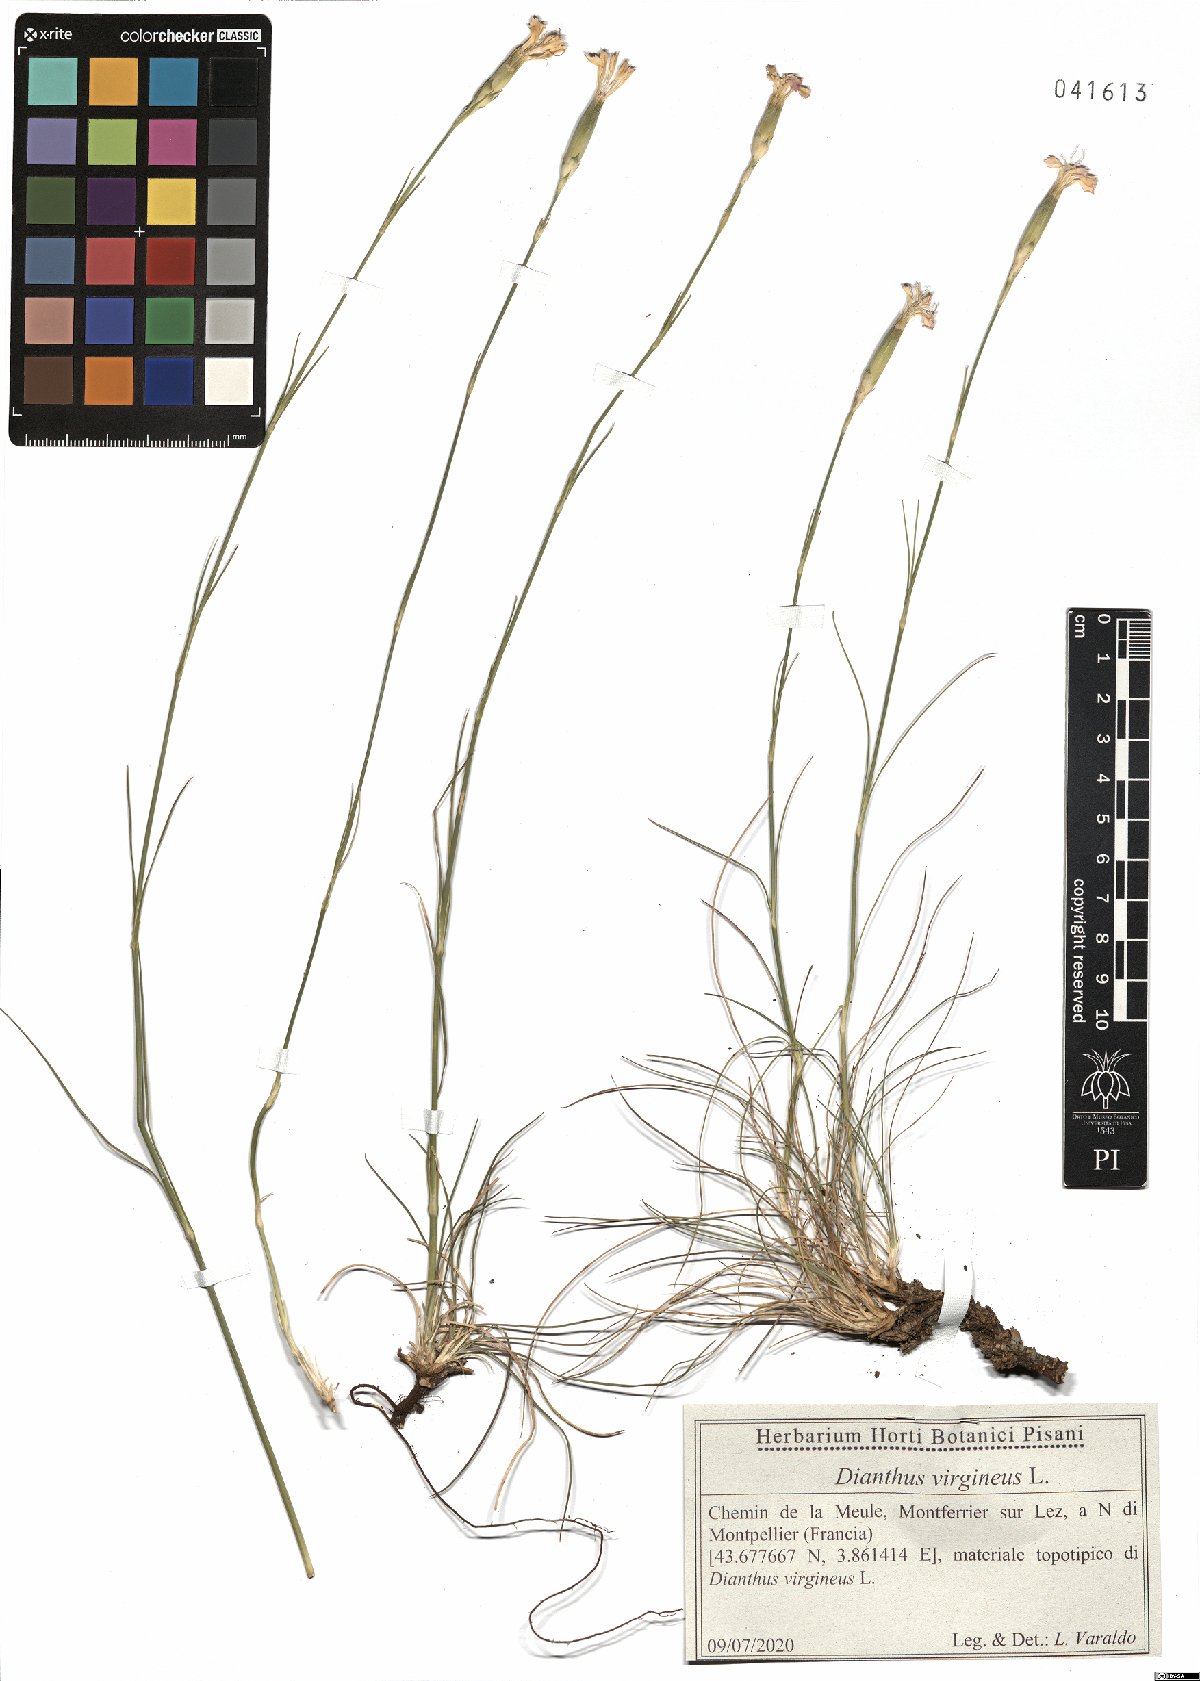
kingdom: Plantae
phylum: Tracheophyta
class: Magnoliopsida
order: Caryophyllales
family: Caryophyllaceae
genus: Dianthus
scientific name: Dianthus virgineus
